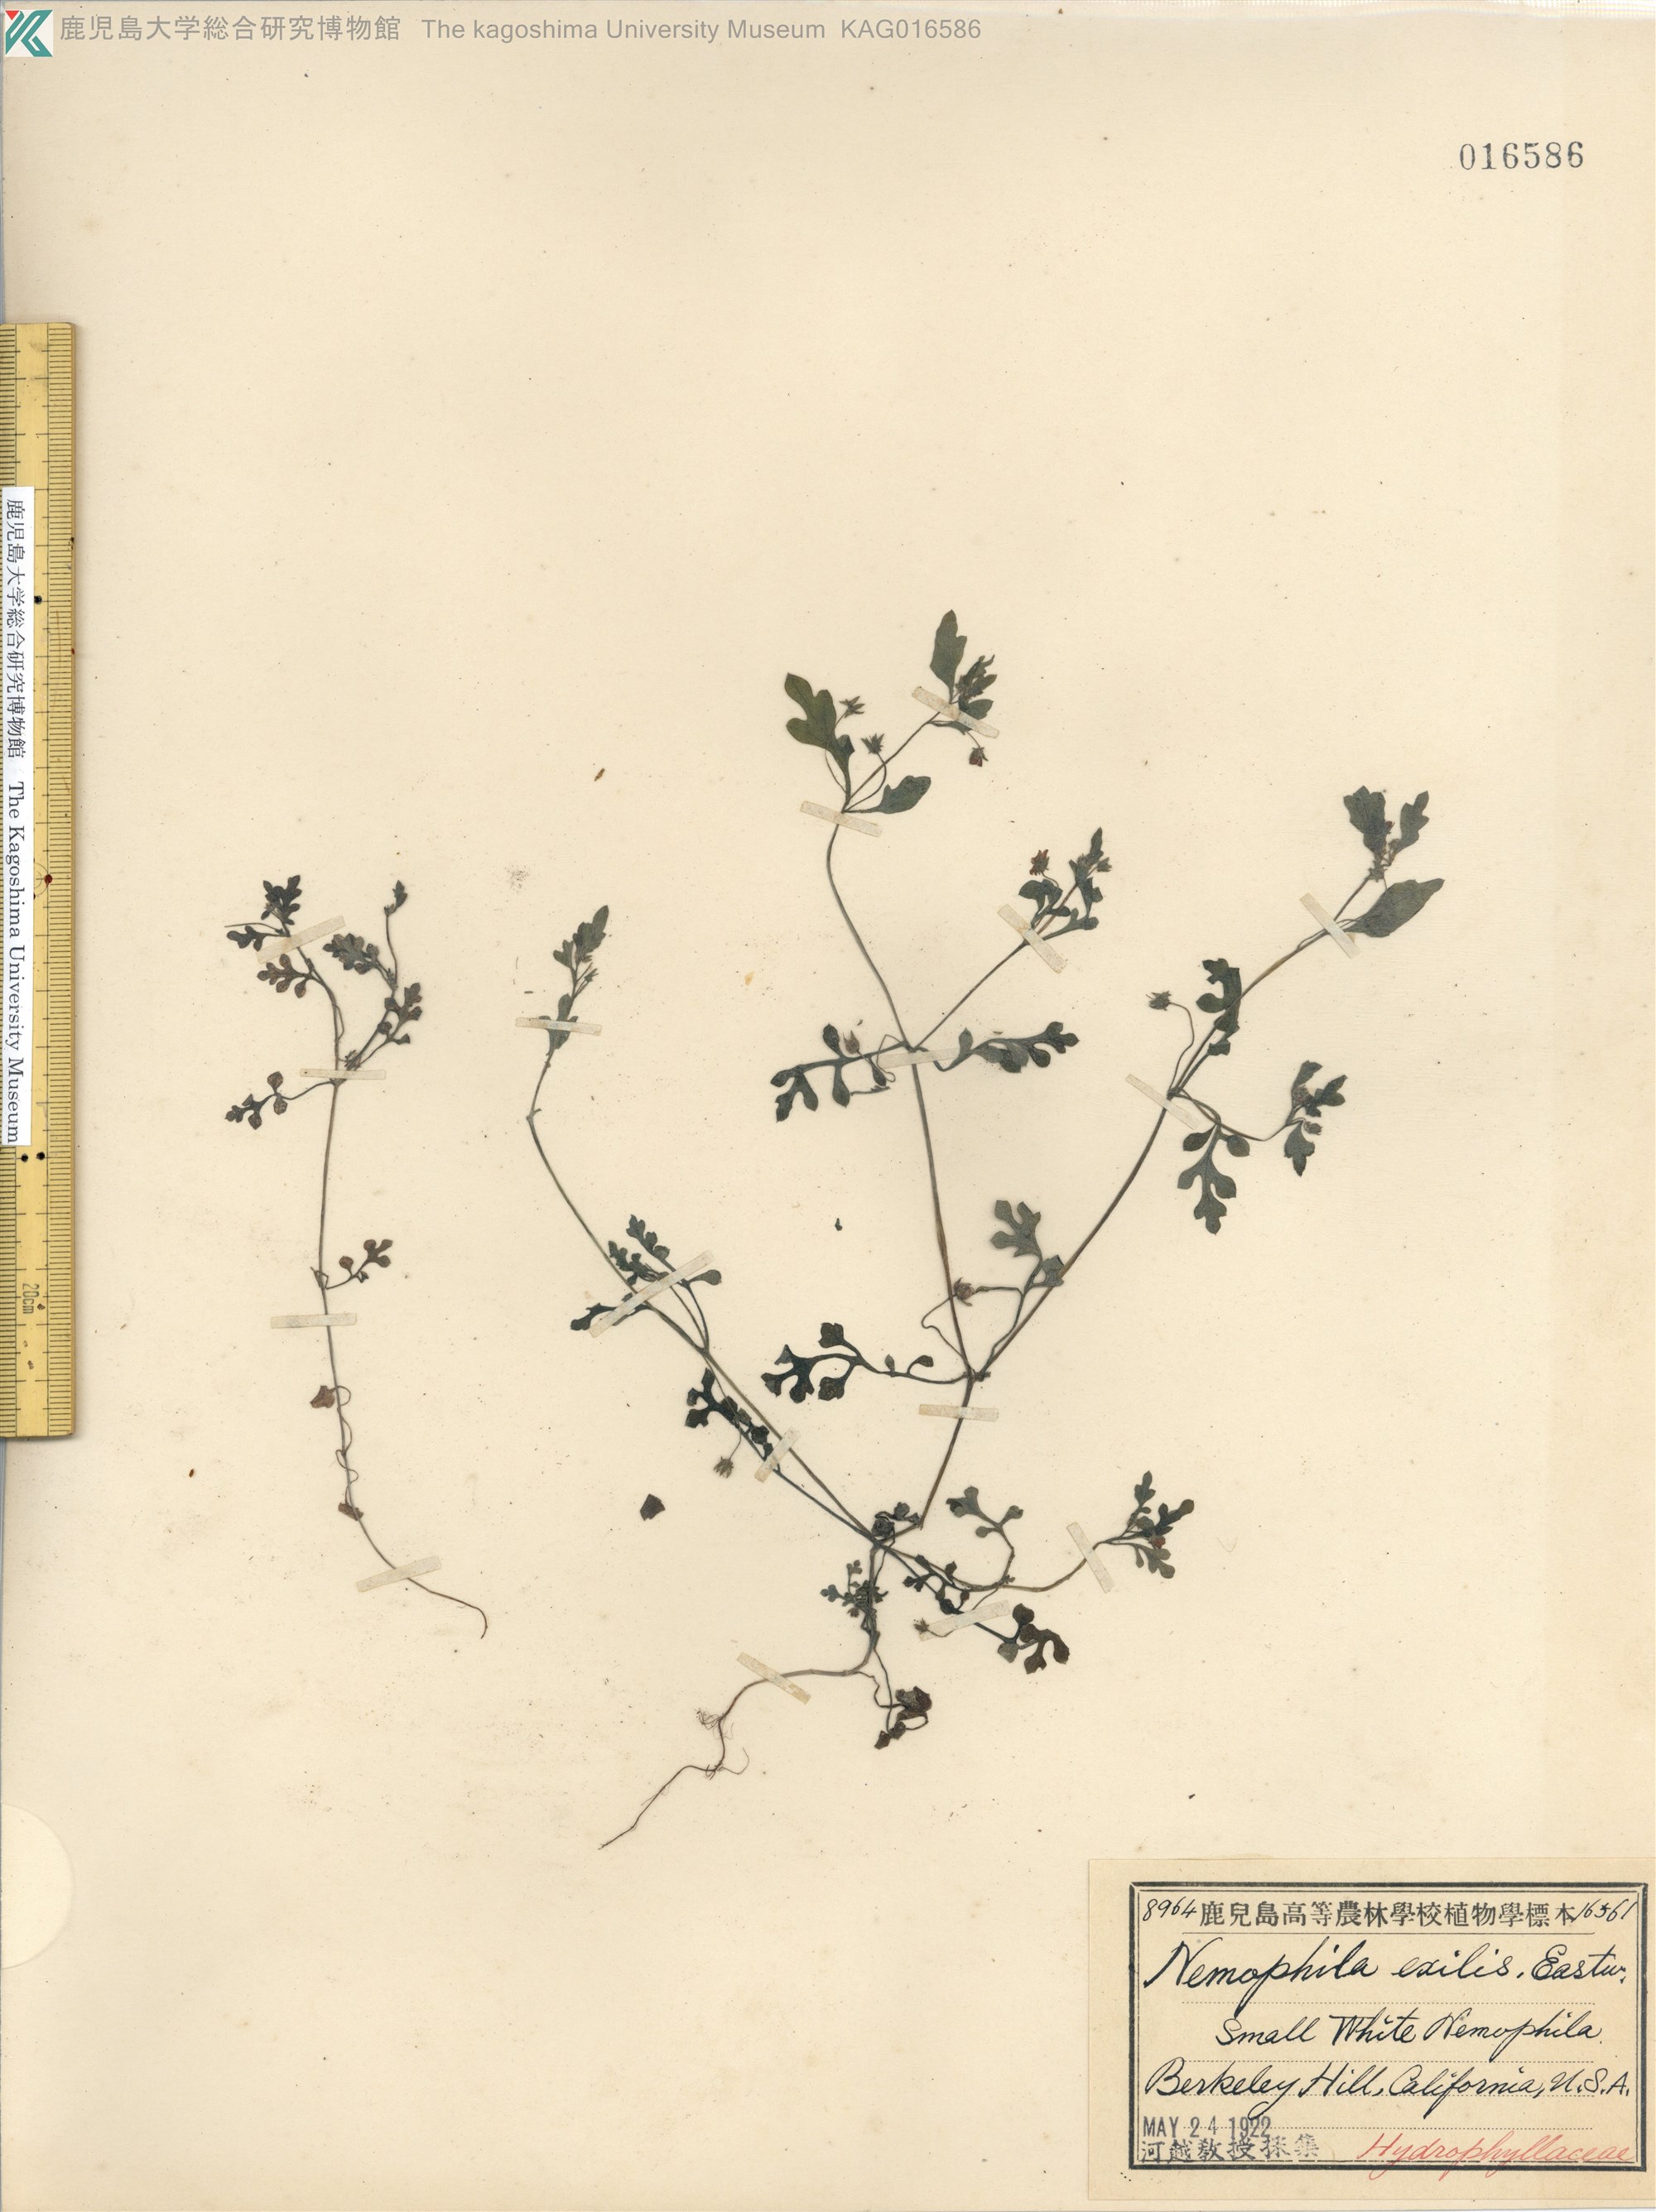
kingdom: Plantae
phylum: Tracheophyta
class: Magnoliopsida
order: Boraginales
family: Hydrophyllaceae
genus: Nemophila
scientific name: Nemophila heterophylla
